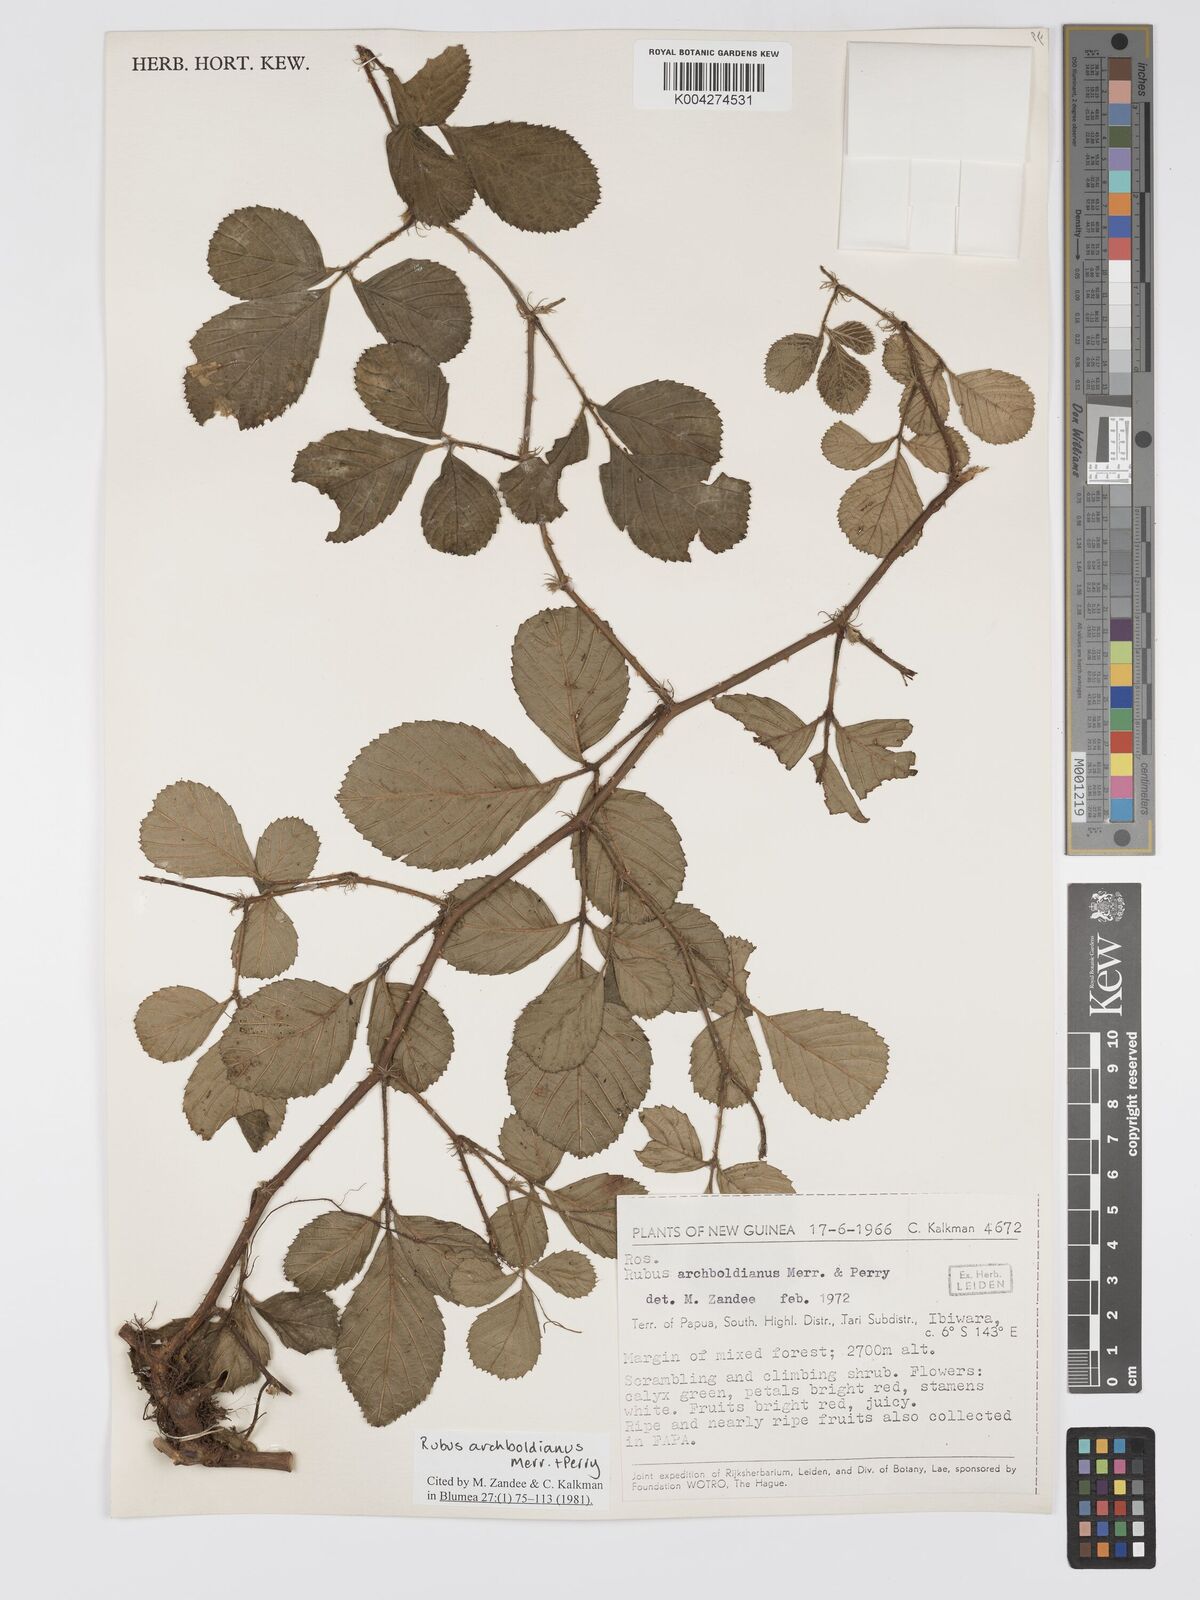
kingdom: Plantae
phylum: Tracheophyta
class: Magnoliopsida
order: Rosales
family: Rosaceae
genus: Rubus
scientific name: Rubus archboldianus
